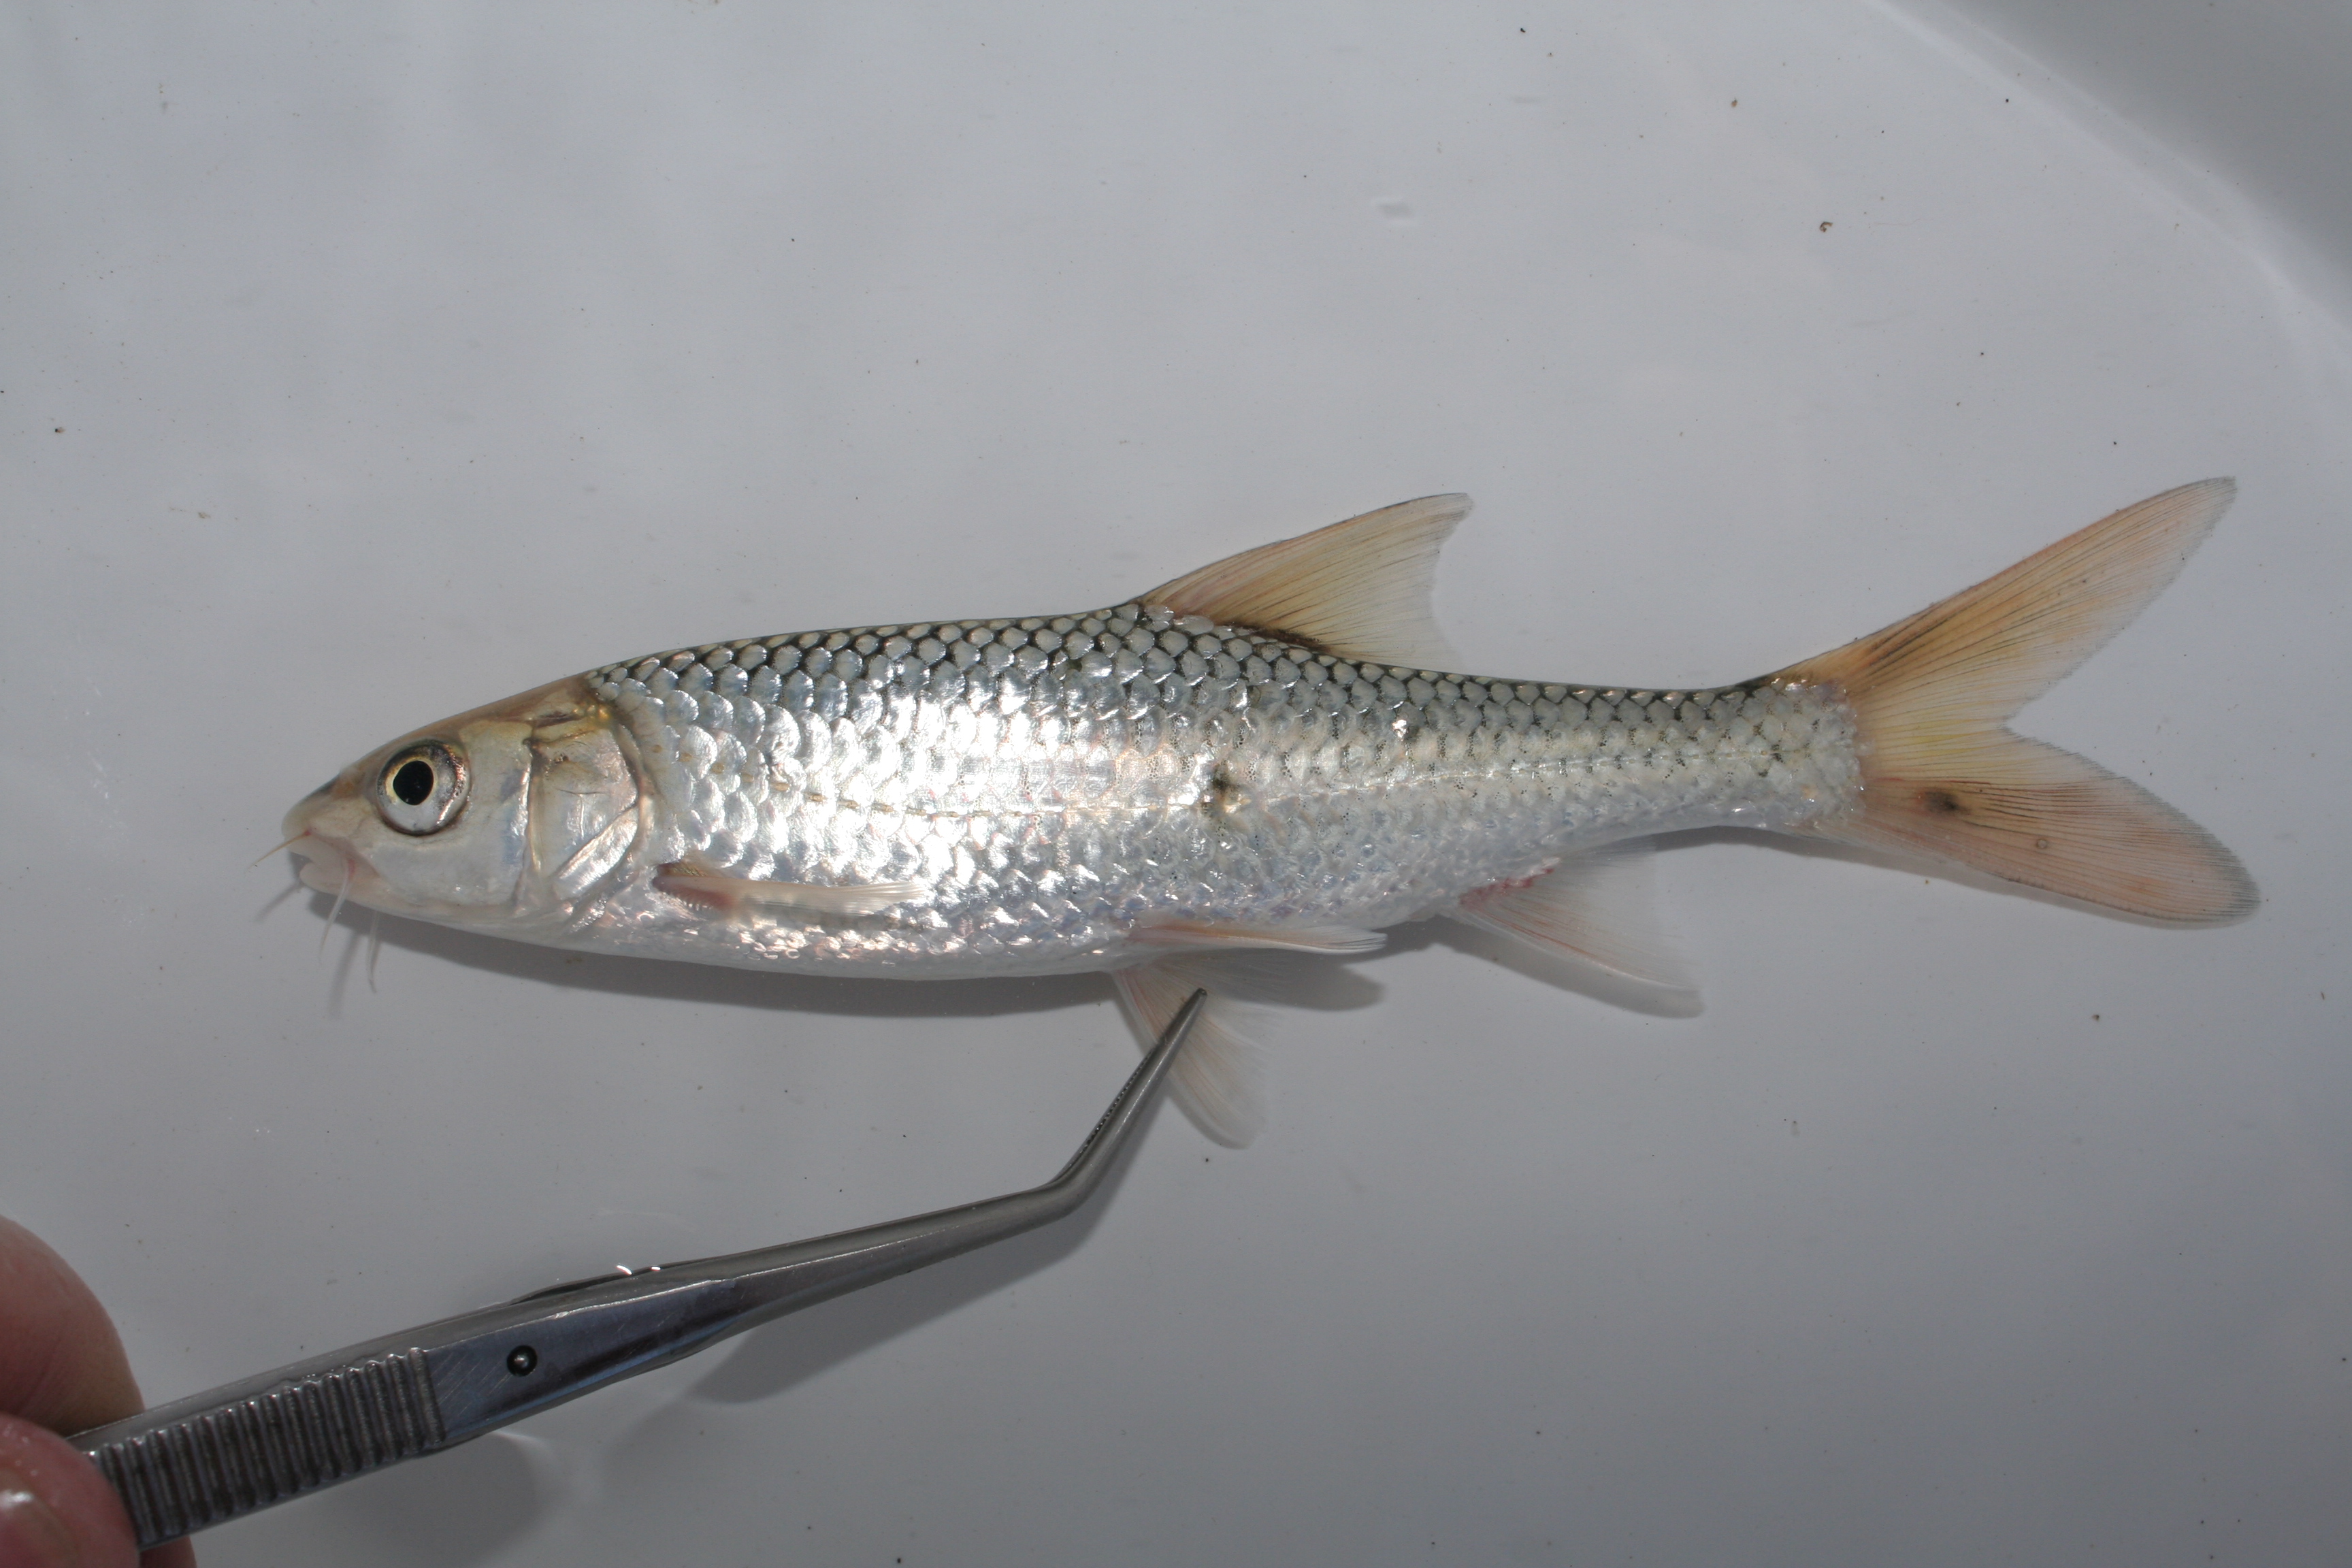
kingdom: Animalia
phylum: Chordata
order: Cypriniformes
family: Cyprinidae
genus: Labeobarbus
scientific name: Labeobarbus aeneus
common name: Smallmouth yellowfish
